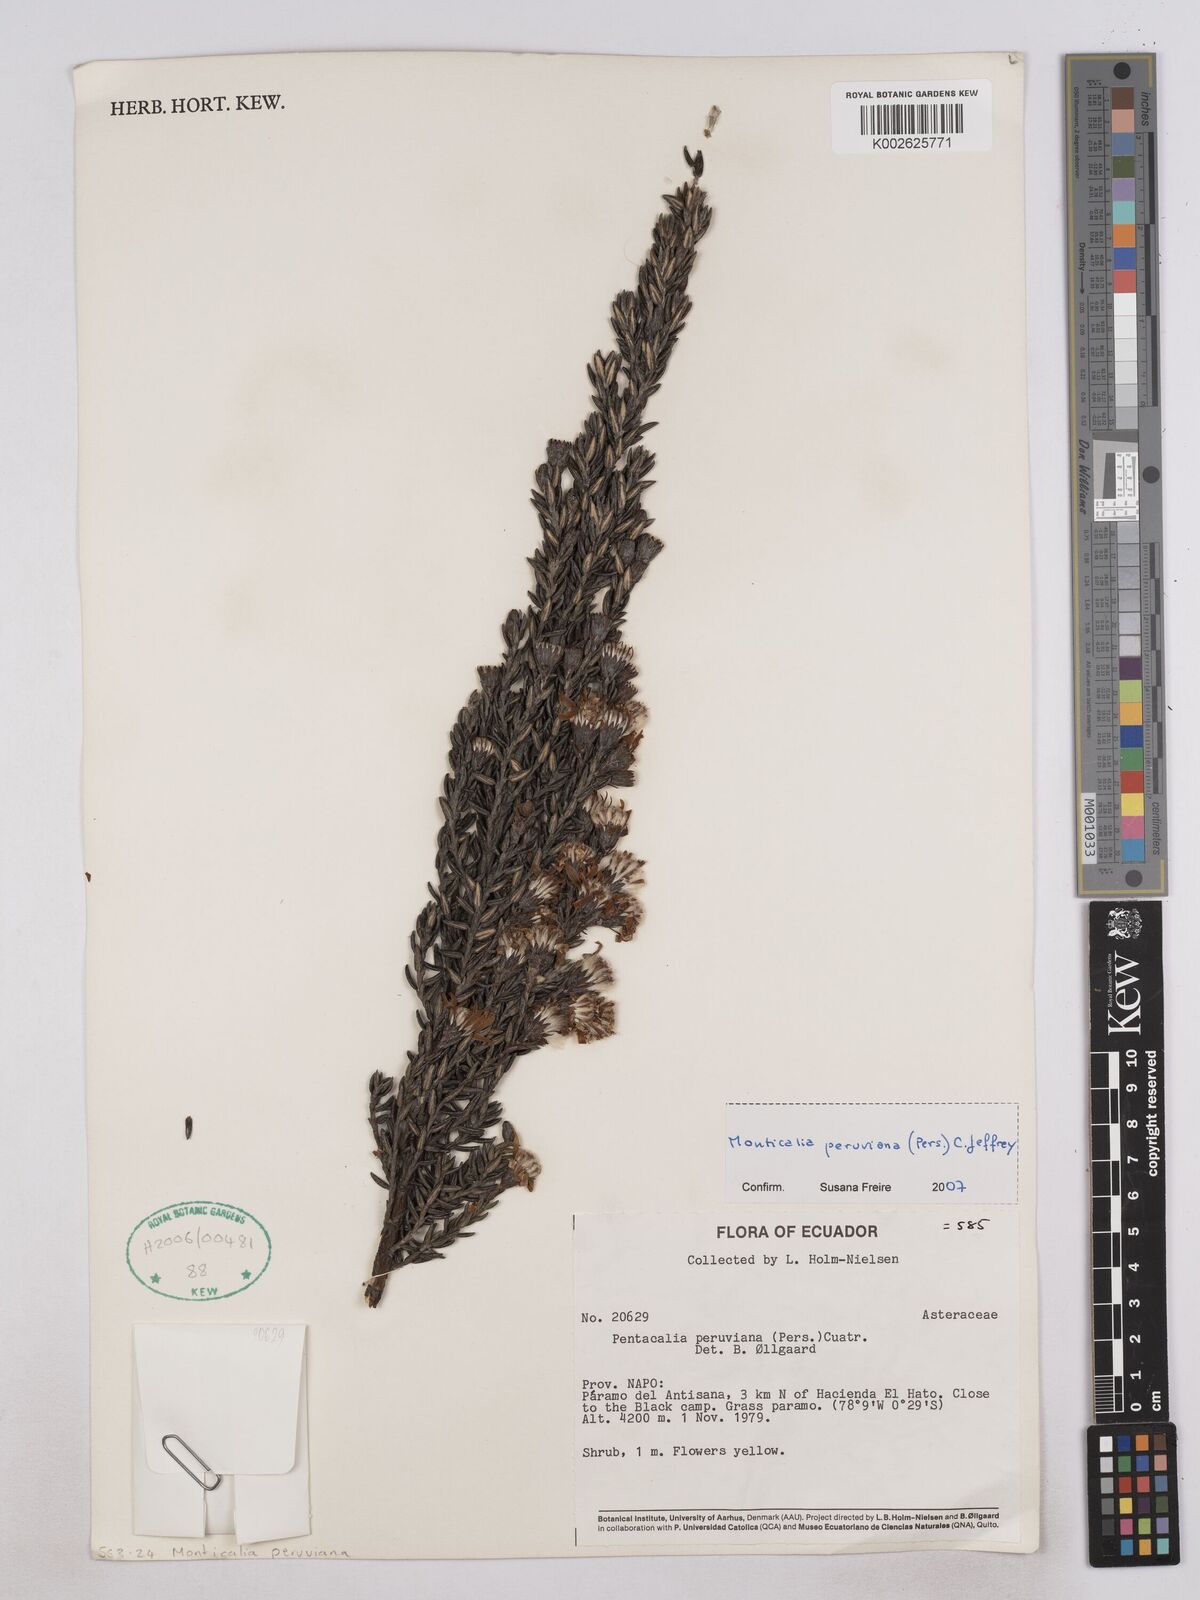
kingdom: Plantae
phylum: Tracheophyta
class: Magnoliopsida
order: Asterales
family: Asteraceae
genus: Monticalia
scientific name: Monticalia peruviana
